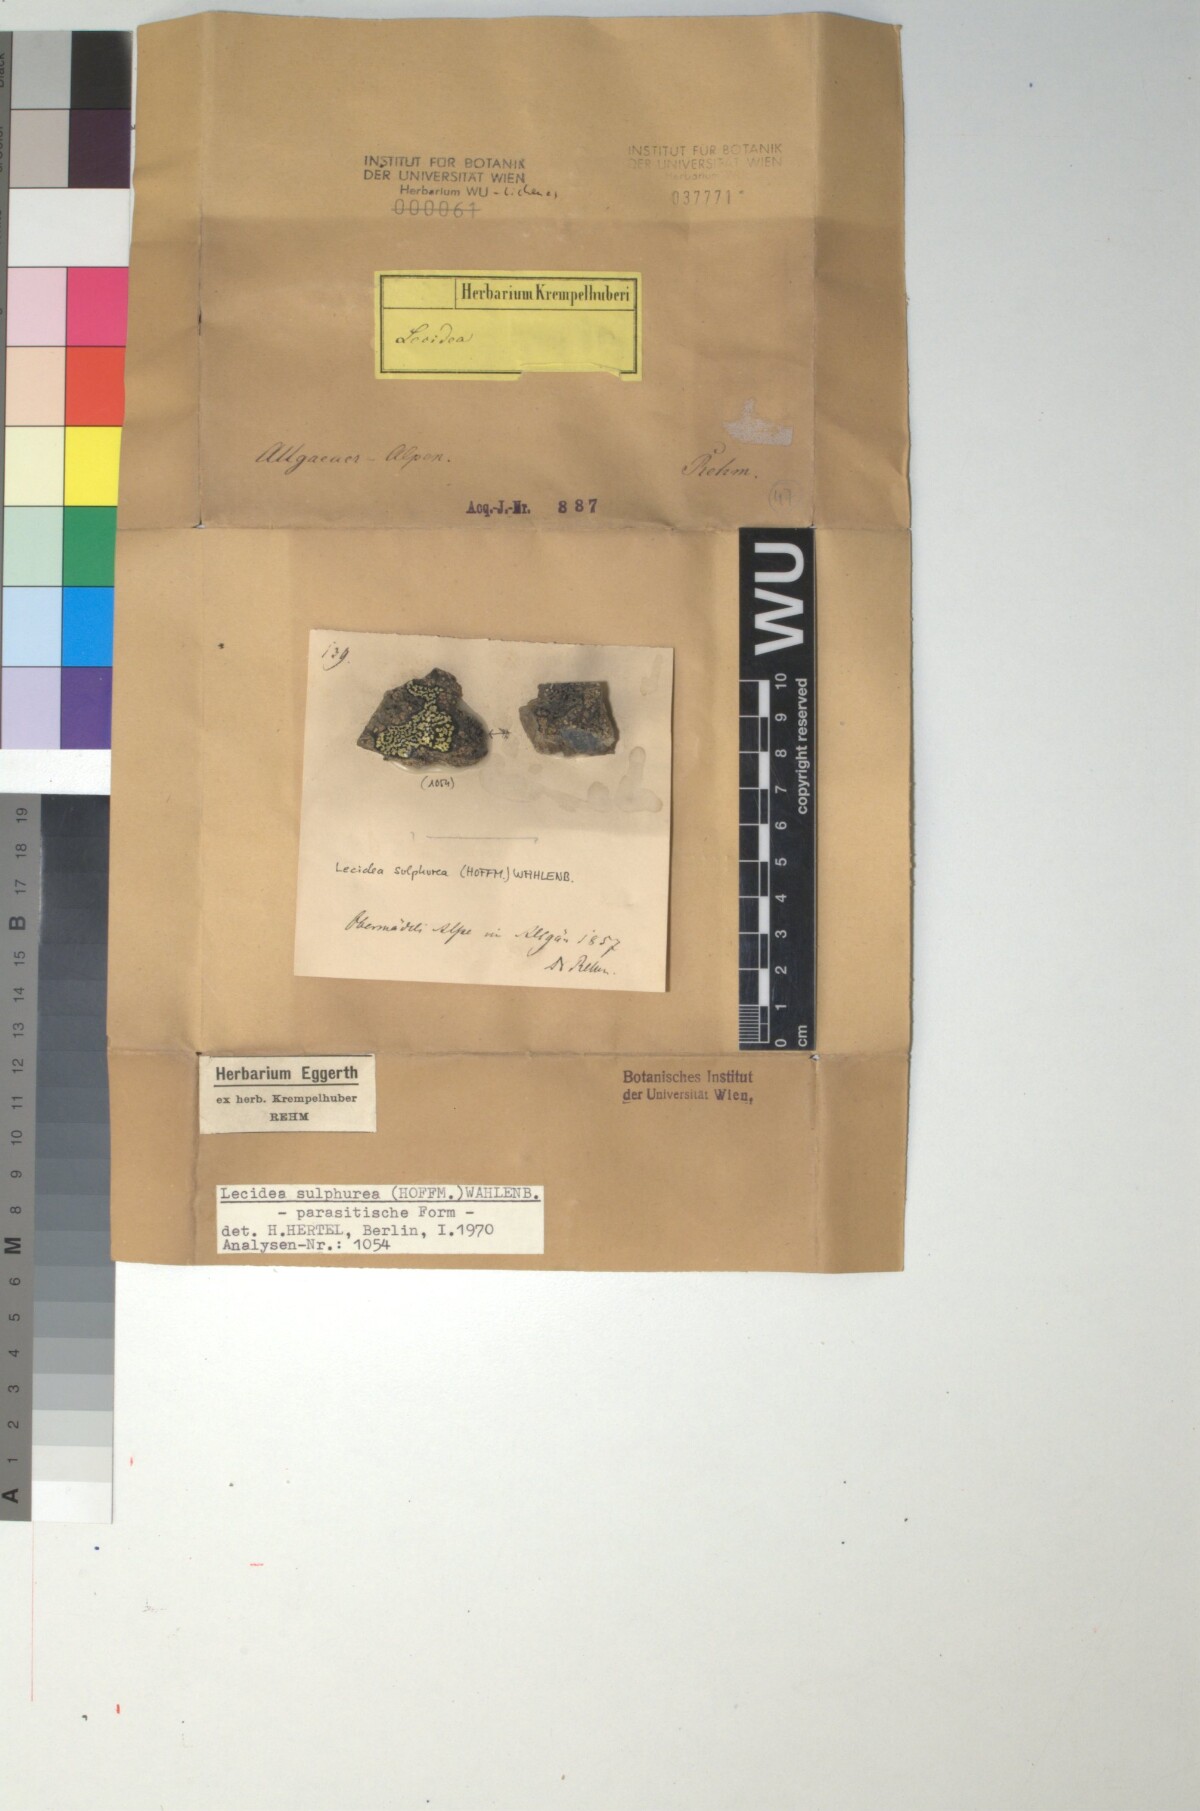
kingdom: Fungi
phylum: Ascomycota
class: Lecanoromycetes
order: Lecanorales
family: Lecanoraceae
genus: Glaucomaria
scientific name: Glaucomaria sulphurea
